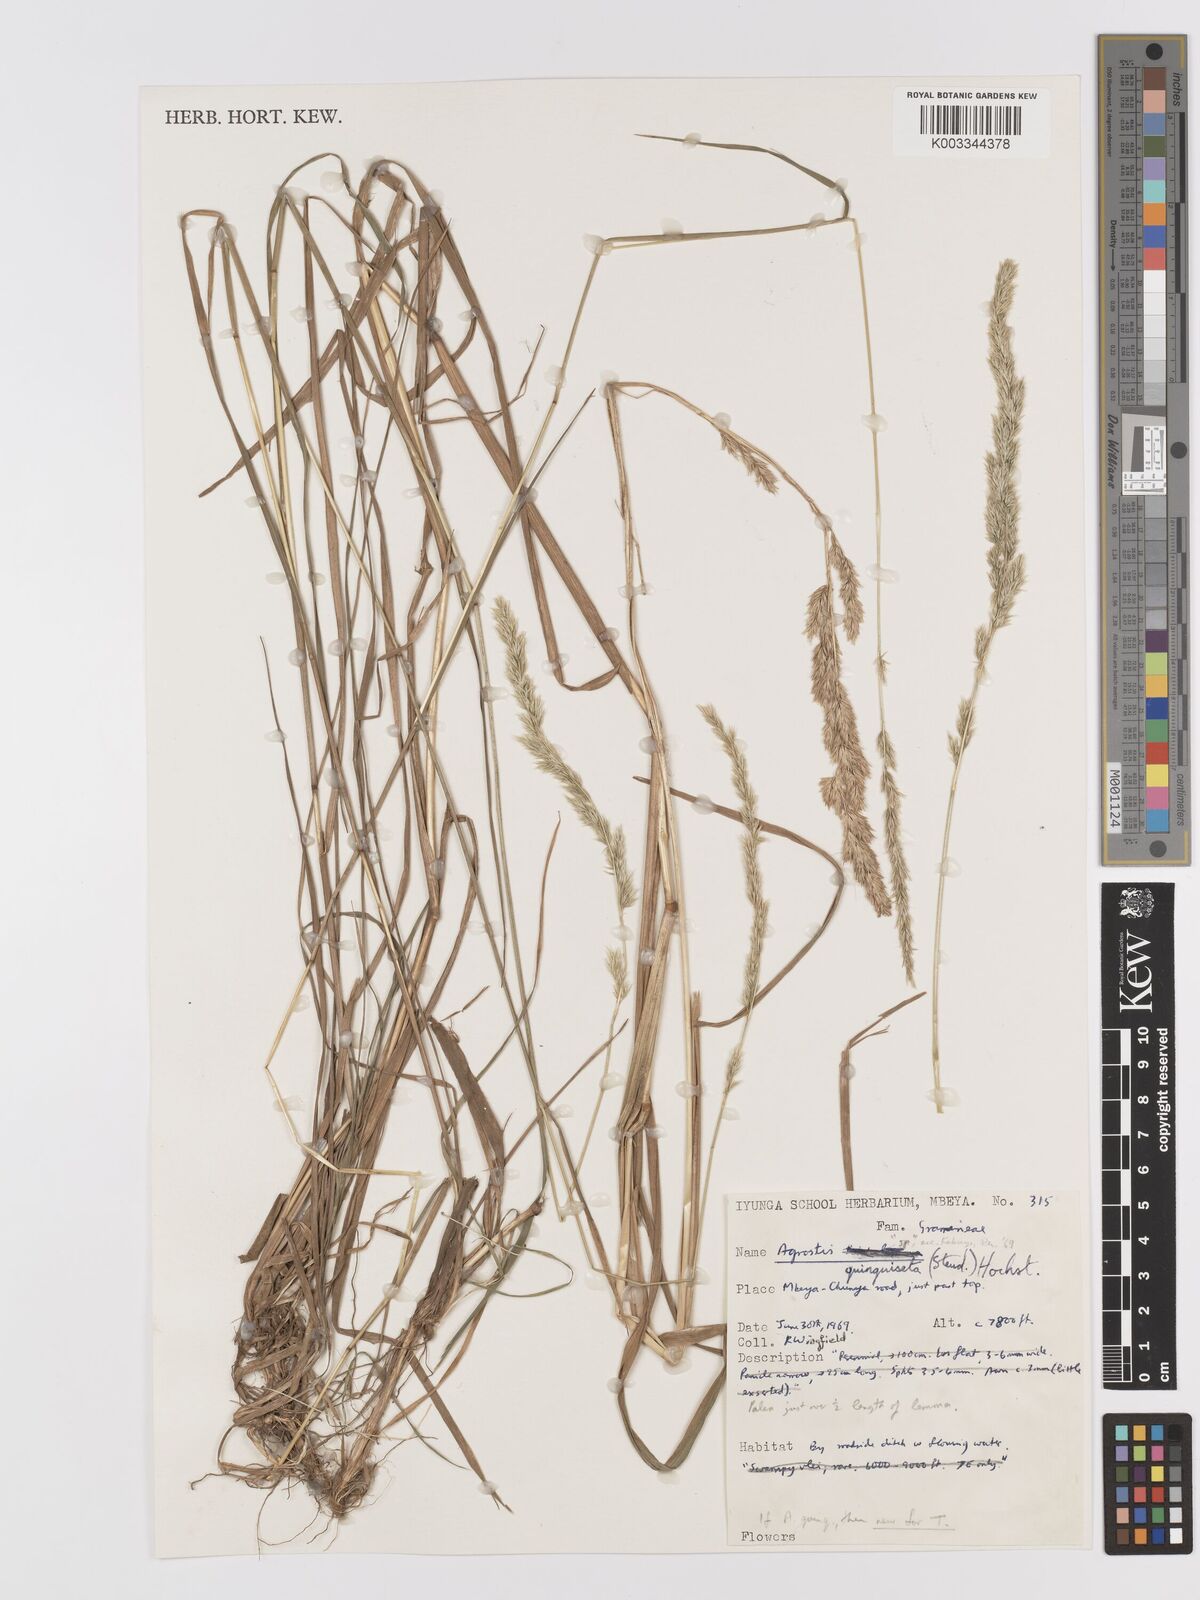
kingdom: Plantae
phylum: Tracheophyta
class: Liliopsida
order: Poales
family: Poaceae
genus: Agrostis
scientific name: Agrostis quinqueseta
